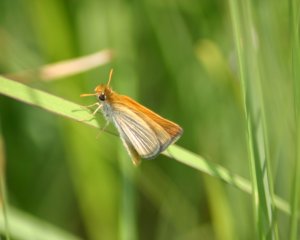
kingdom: Animalia
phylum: Arthropoda
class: Insecta
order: Lepidoptera
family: Hesperiidae
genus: Oarisma
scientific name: Oarisma poweshiek
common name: Powesheik Skipperling
